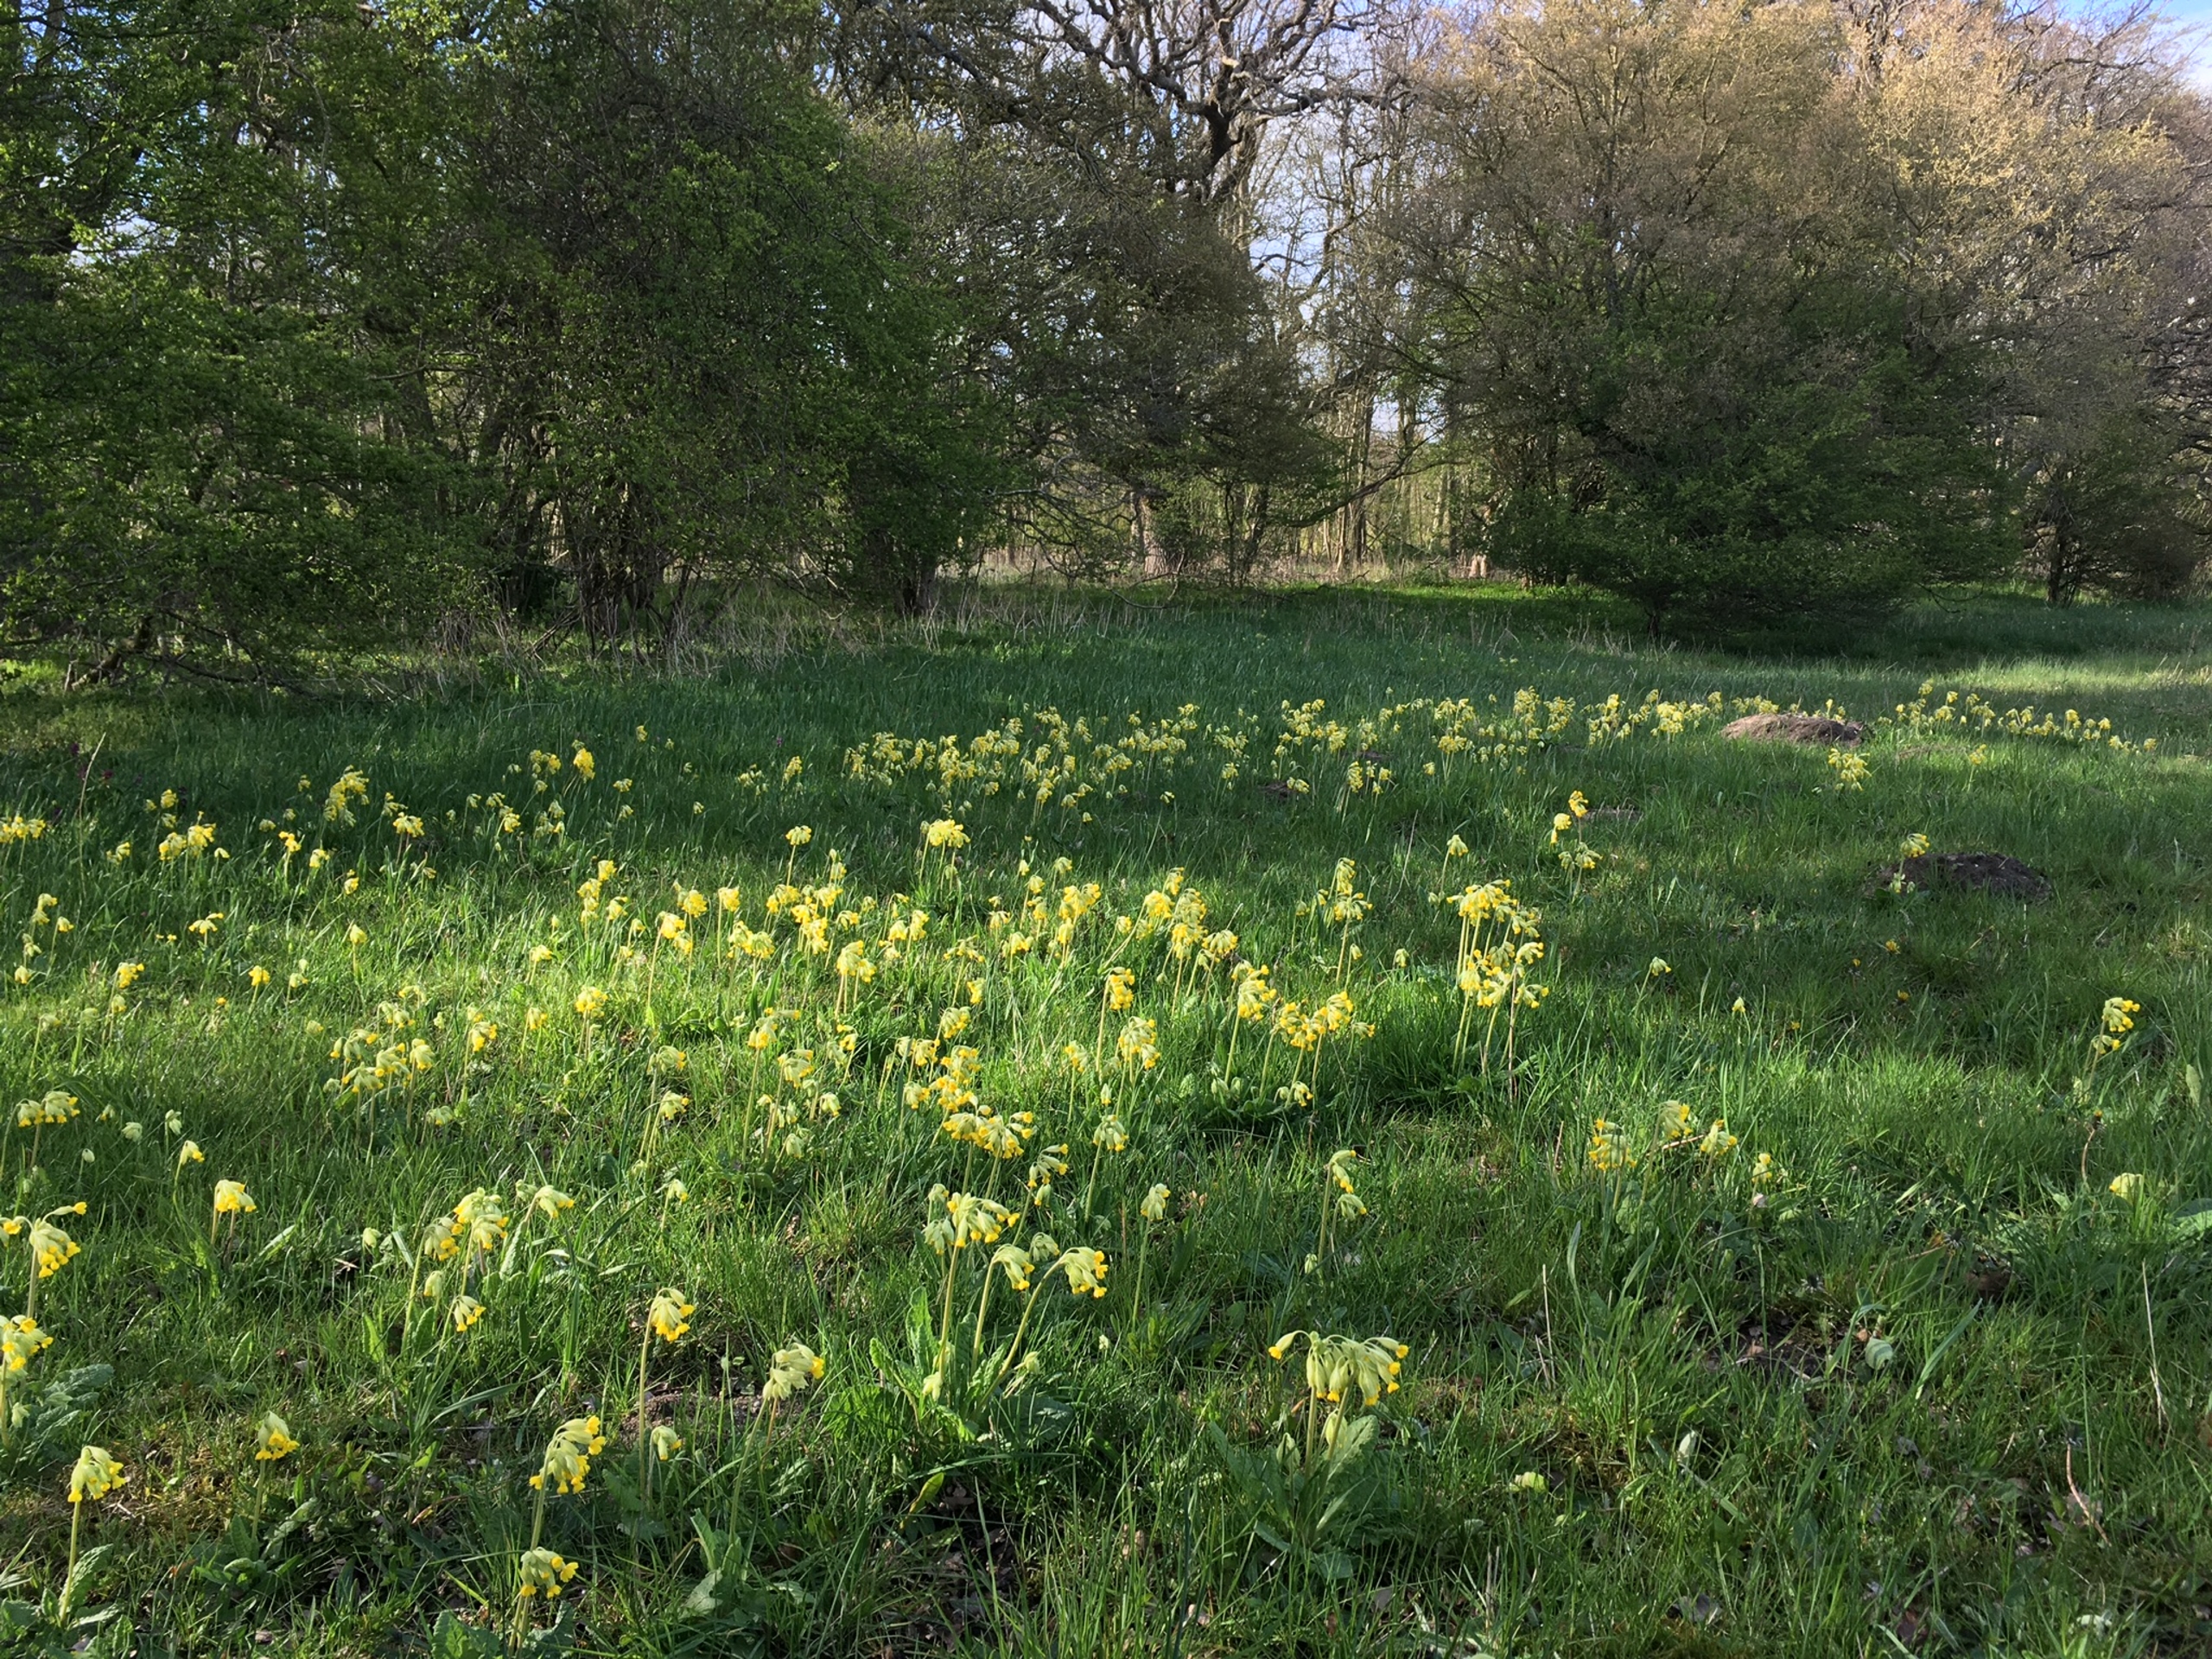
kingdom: Plantae
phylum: Tracheophyta
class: Magnoliopsida
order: Ericales
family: Primulaceae
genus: Primula
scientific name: Primula veris
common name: Hulkravet kodriver
